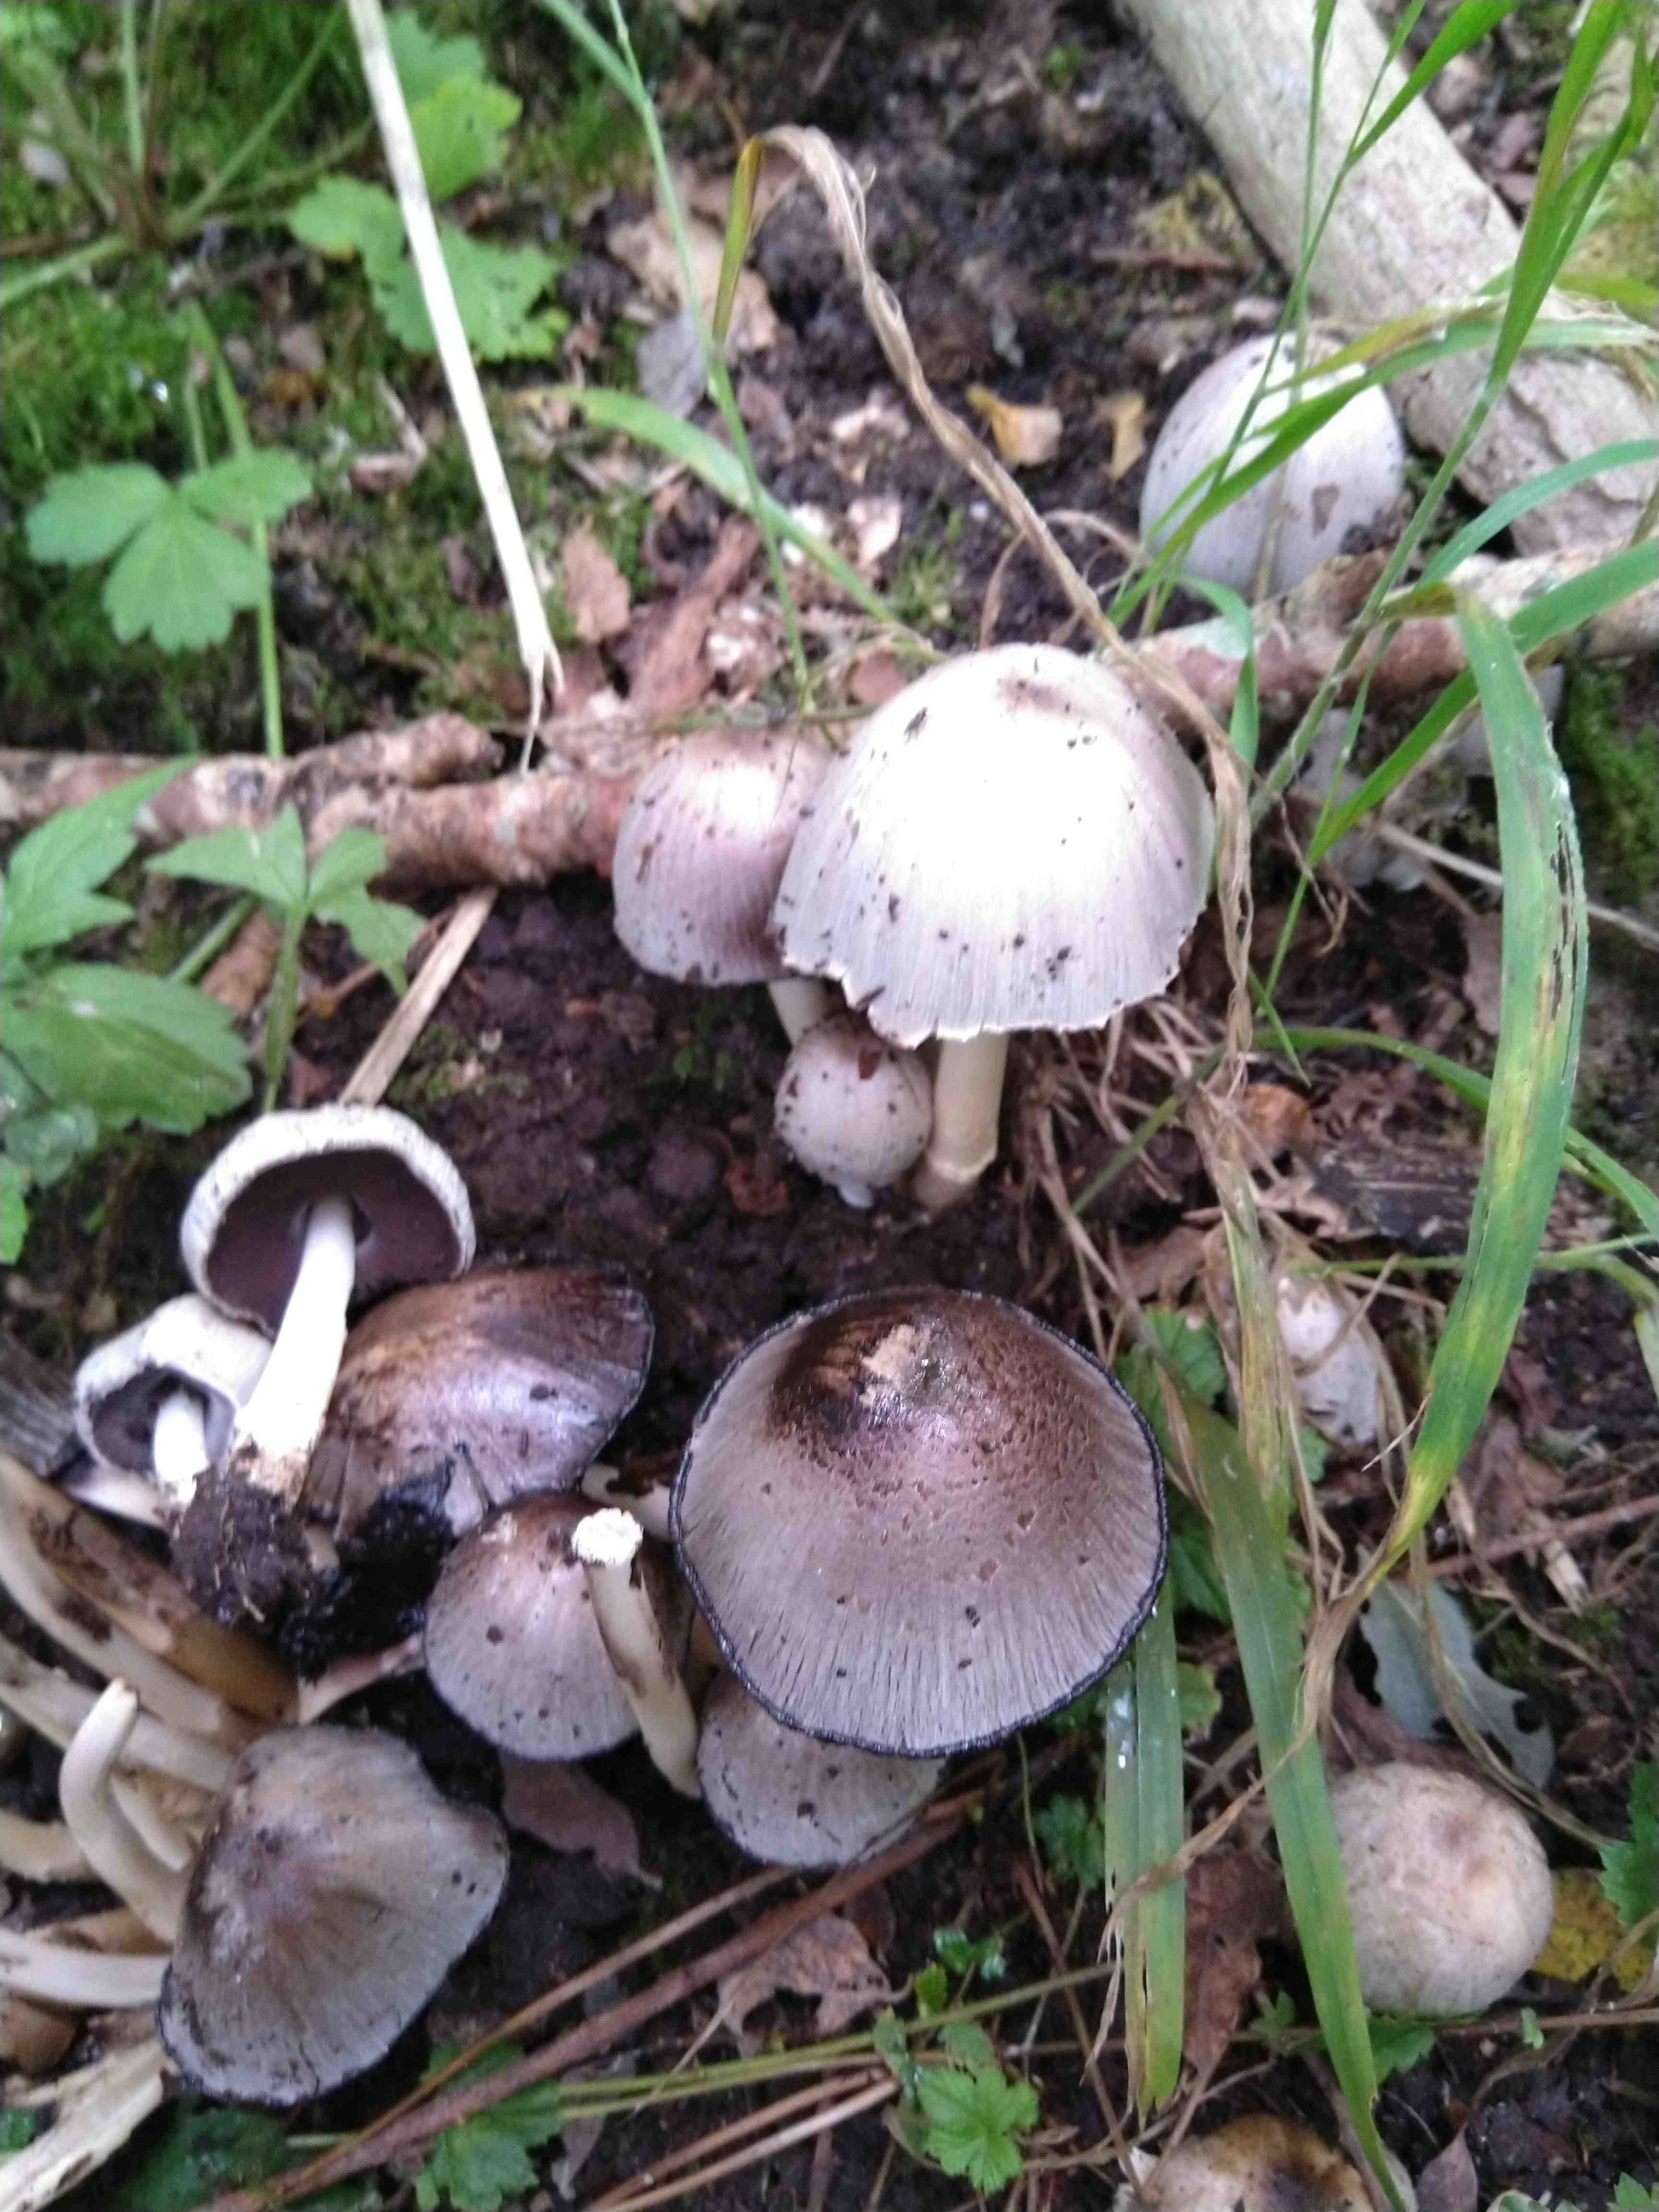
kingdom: Fungi
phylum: Basidiomycota
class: Agaricomycetes
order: Agaricales
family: Psathyrellaceae
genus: Coprinopsis
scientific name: Coprinopsis atramentaria
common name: almindelig blækhat
